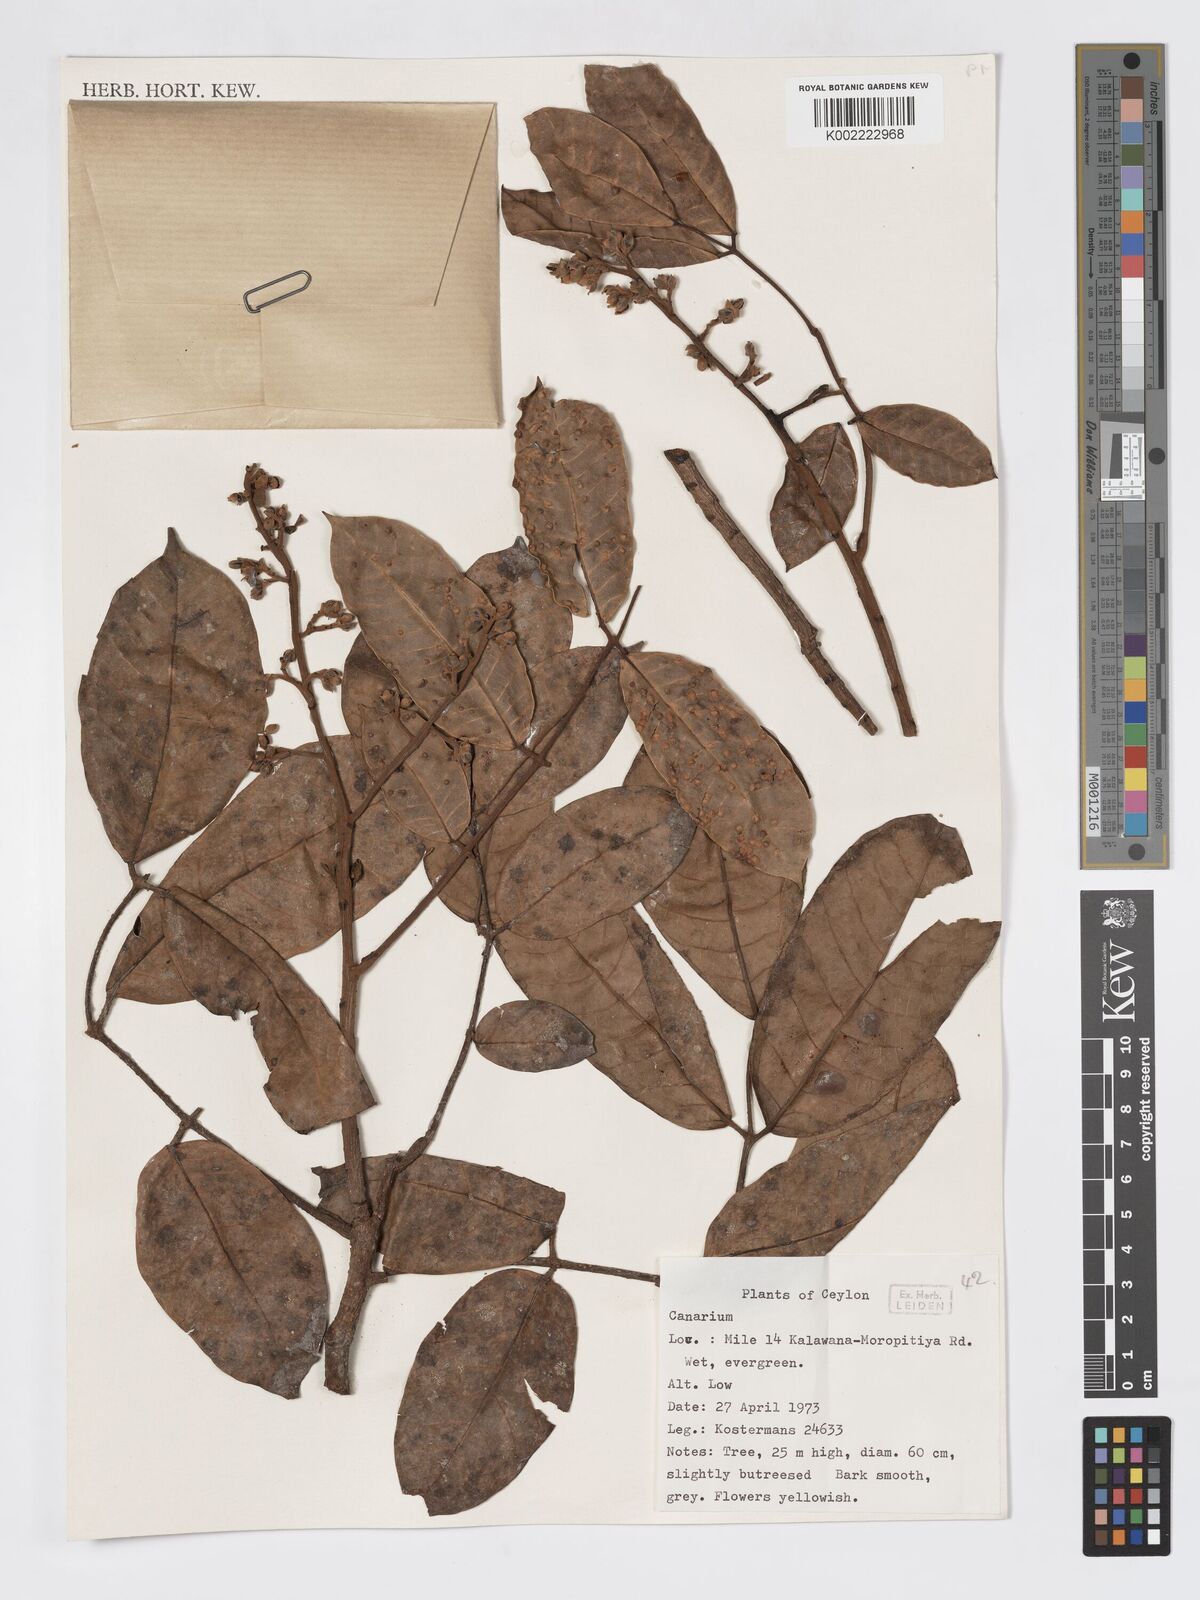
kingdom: Plantae
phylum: Tracheophyta
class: Magnoliopsida
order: Sapindales
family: Burseraceae
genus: Canarium
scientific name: Canarium
